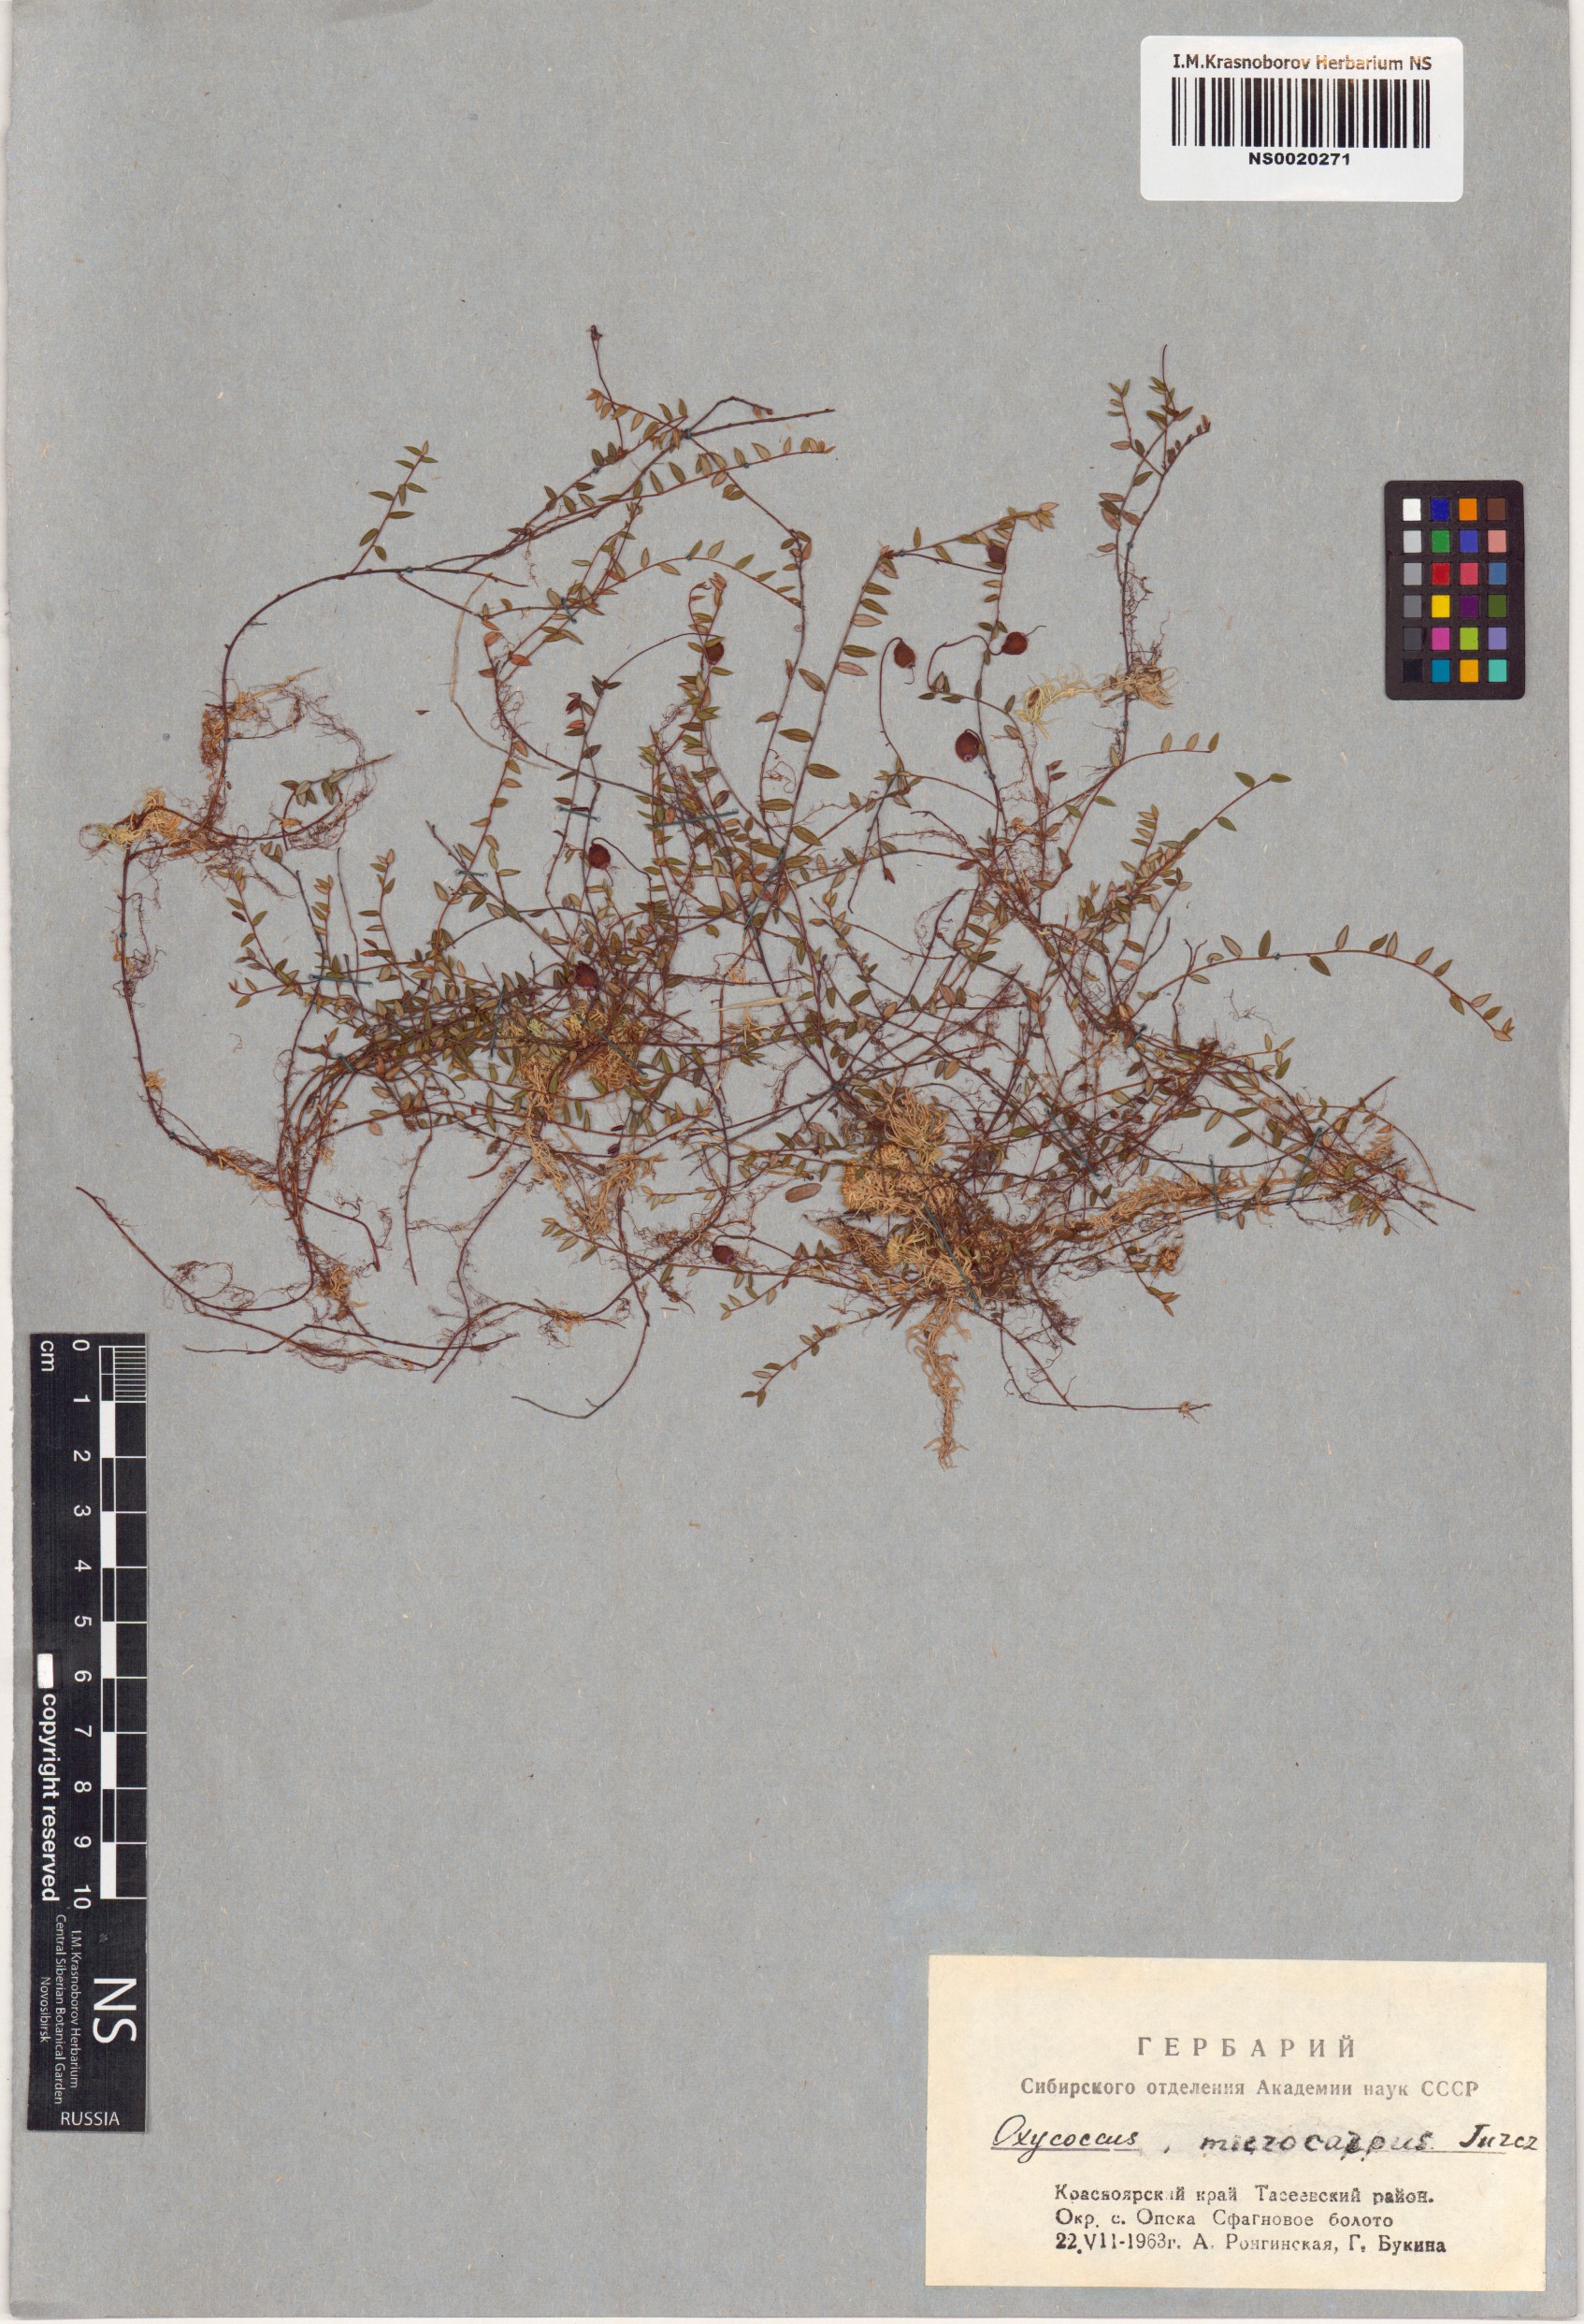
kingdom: Plantae
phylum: Tracheophyta
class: Magnoliopsida
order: Ericales
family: Ericaceae
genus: Vaccinium
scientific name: Vaccinium microcarpum
